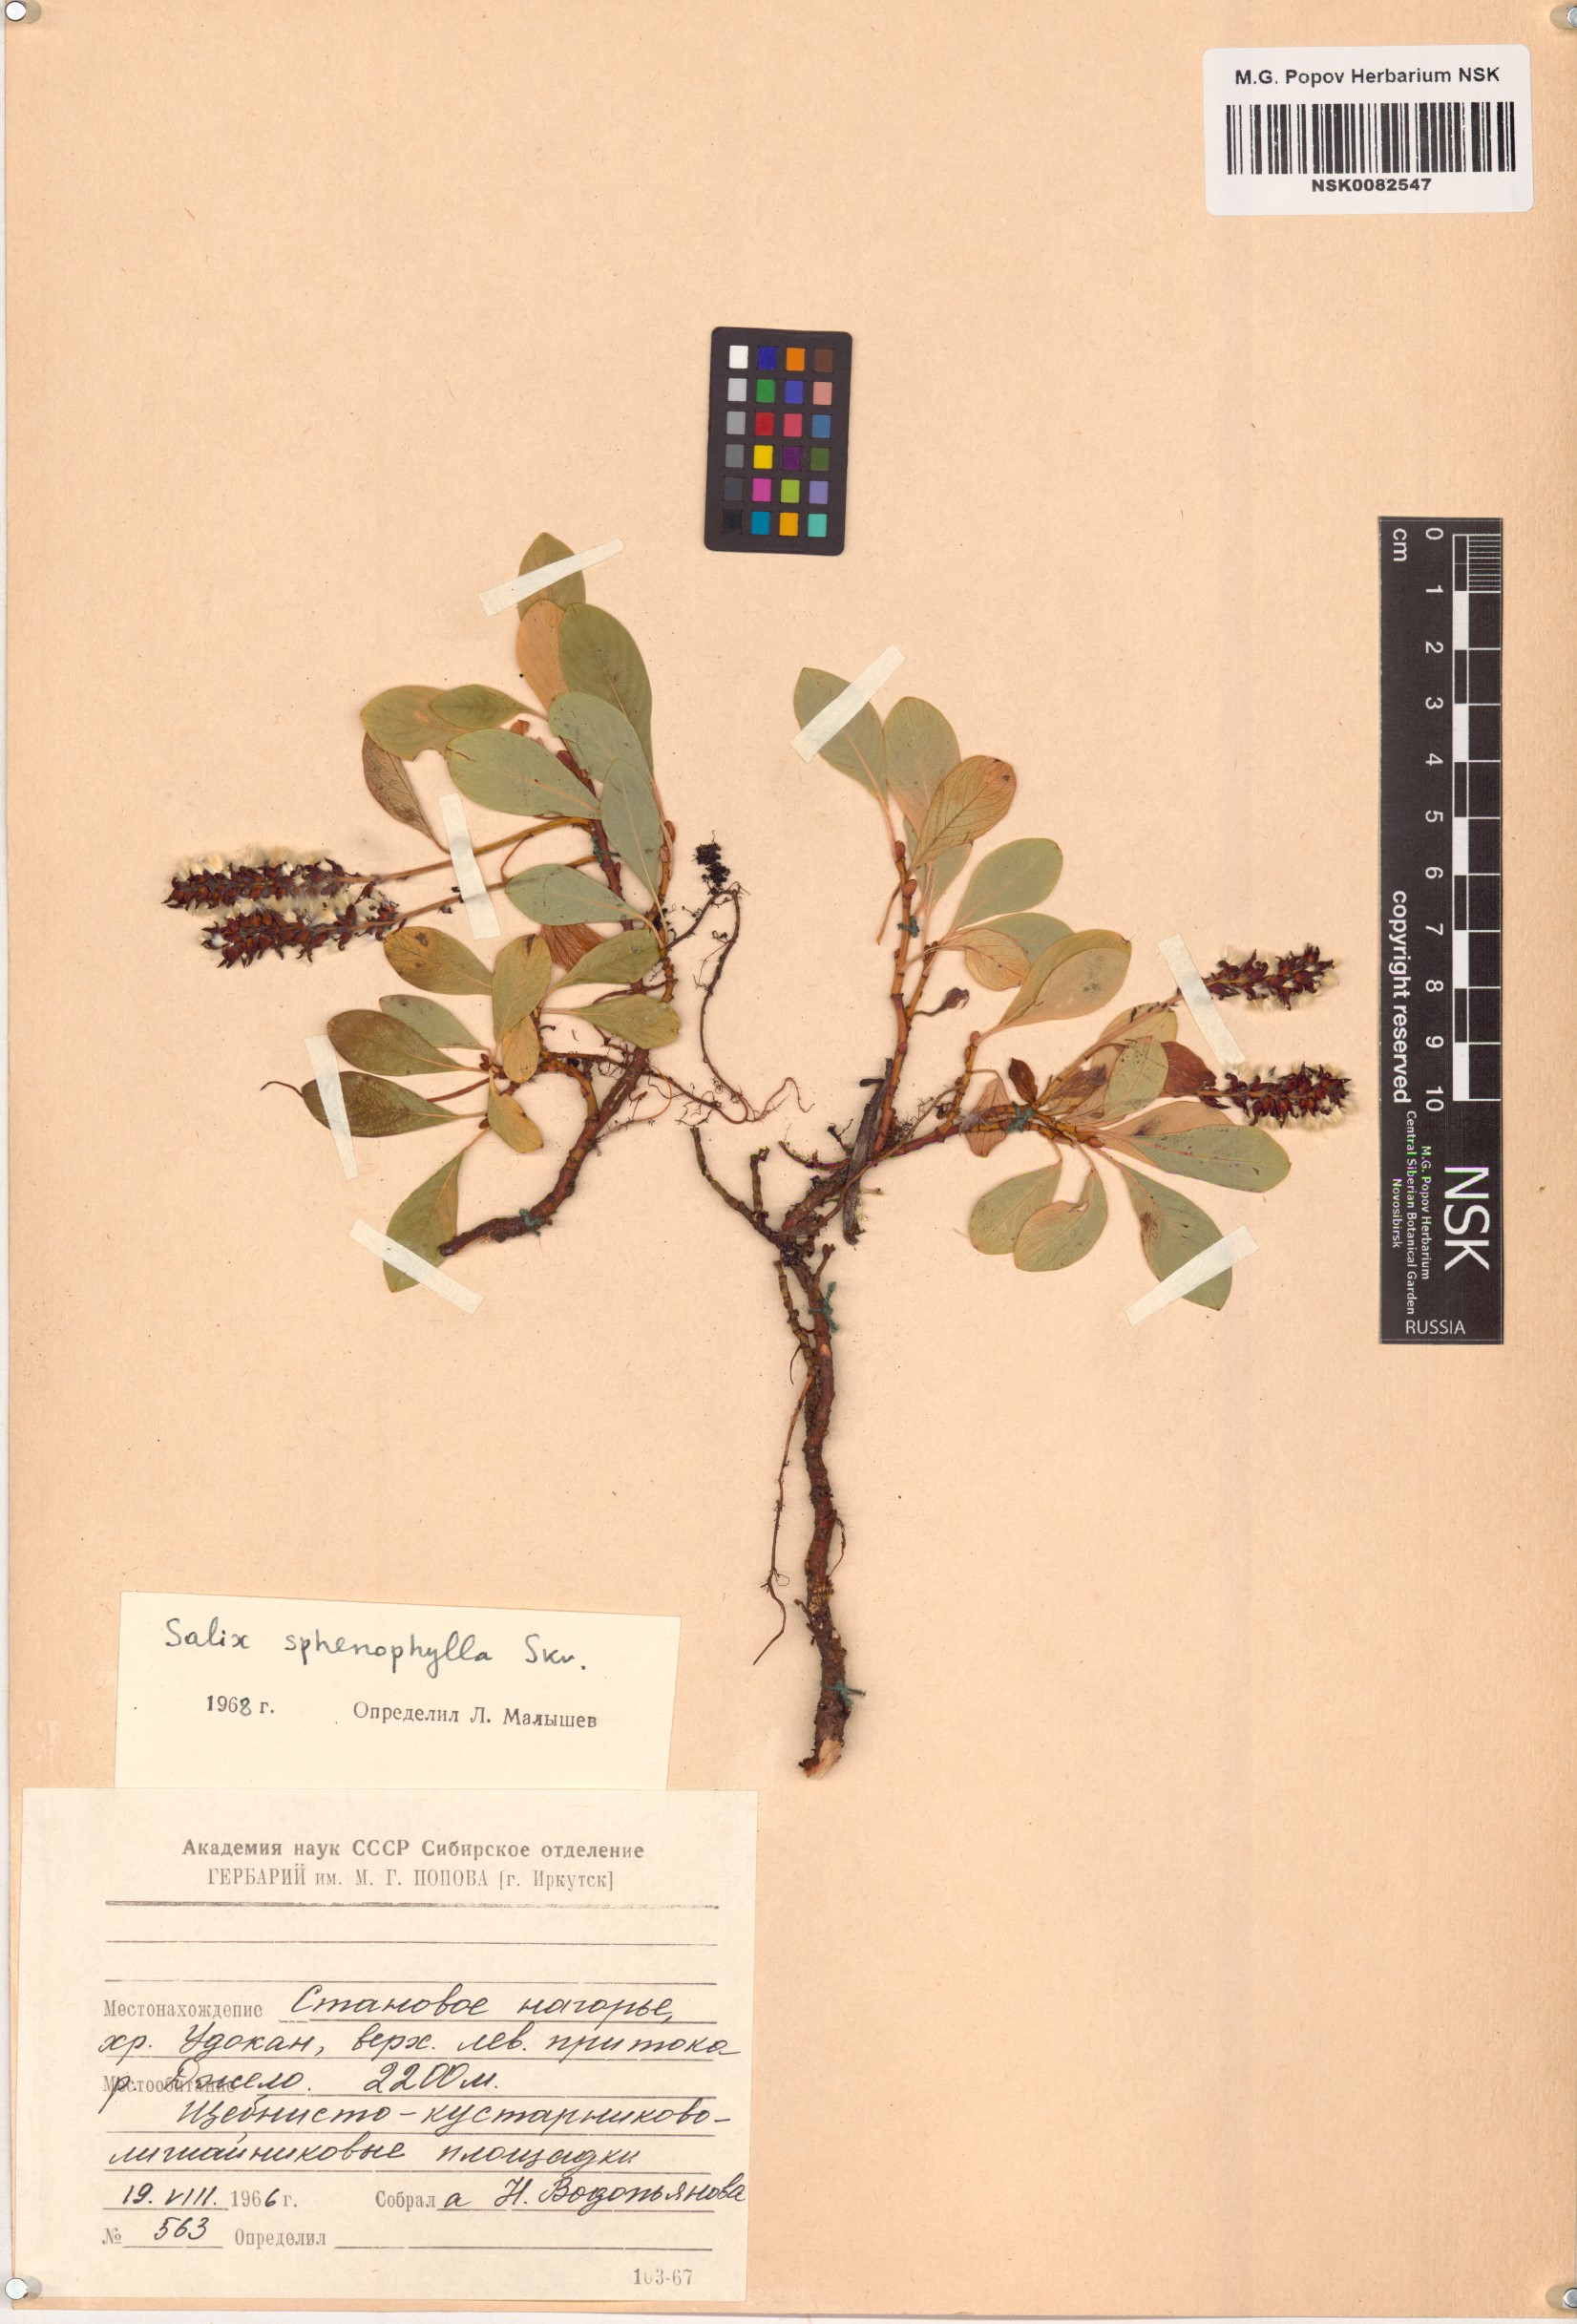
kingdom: Plantae
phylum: Tracheophyta
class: Magnoliopsida
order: Malpighiales
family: Salicaceae
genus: Salix
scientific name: Salix sphenophylla
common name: Wedge-leaved willow
